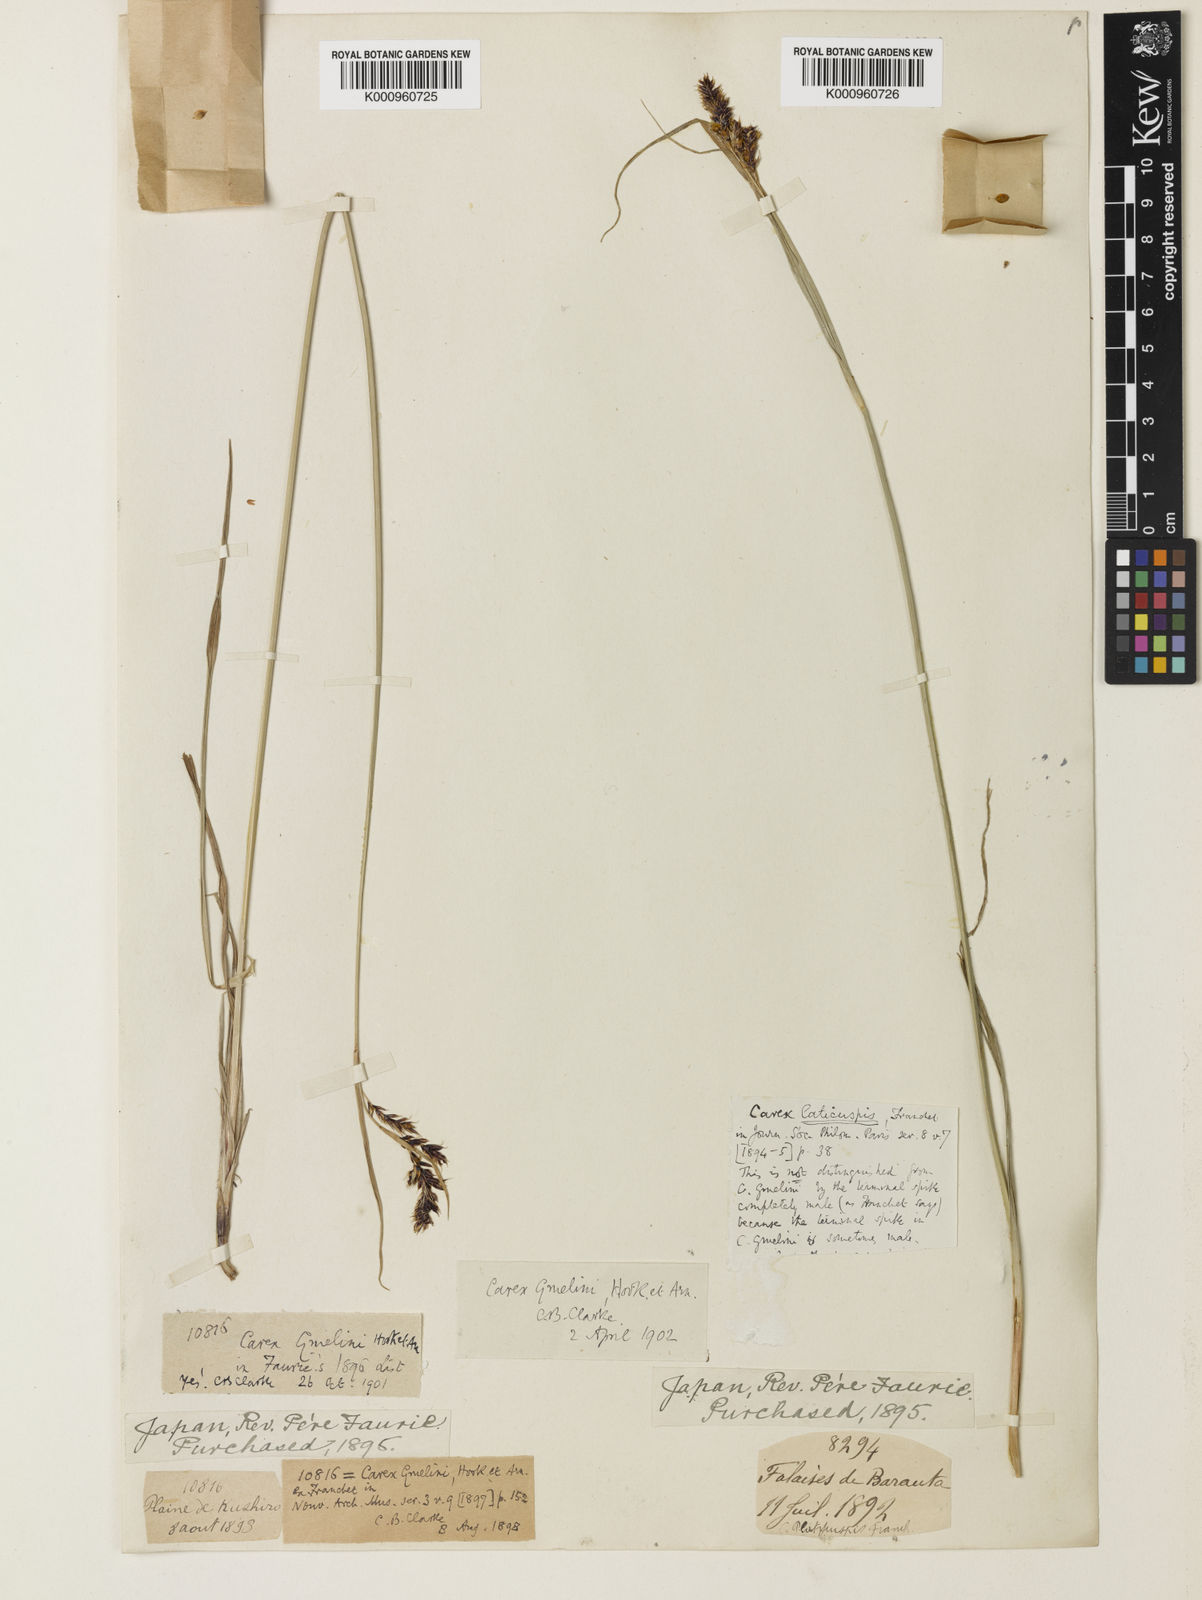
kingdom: Plantae
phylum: Tracheophyta
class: Liliopsida
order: Poales
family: Cyperaceae
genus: Carex
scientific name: Carex gmelinii
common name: Gmelin's sedge
